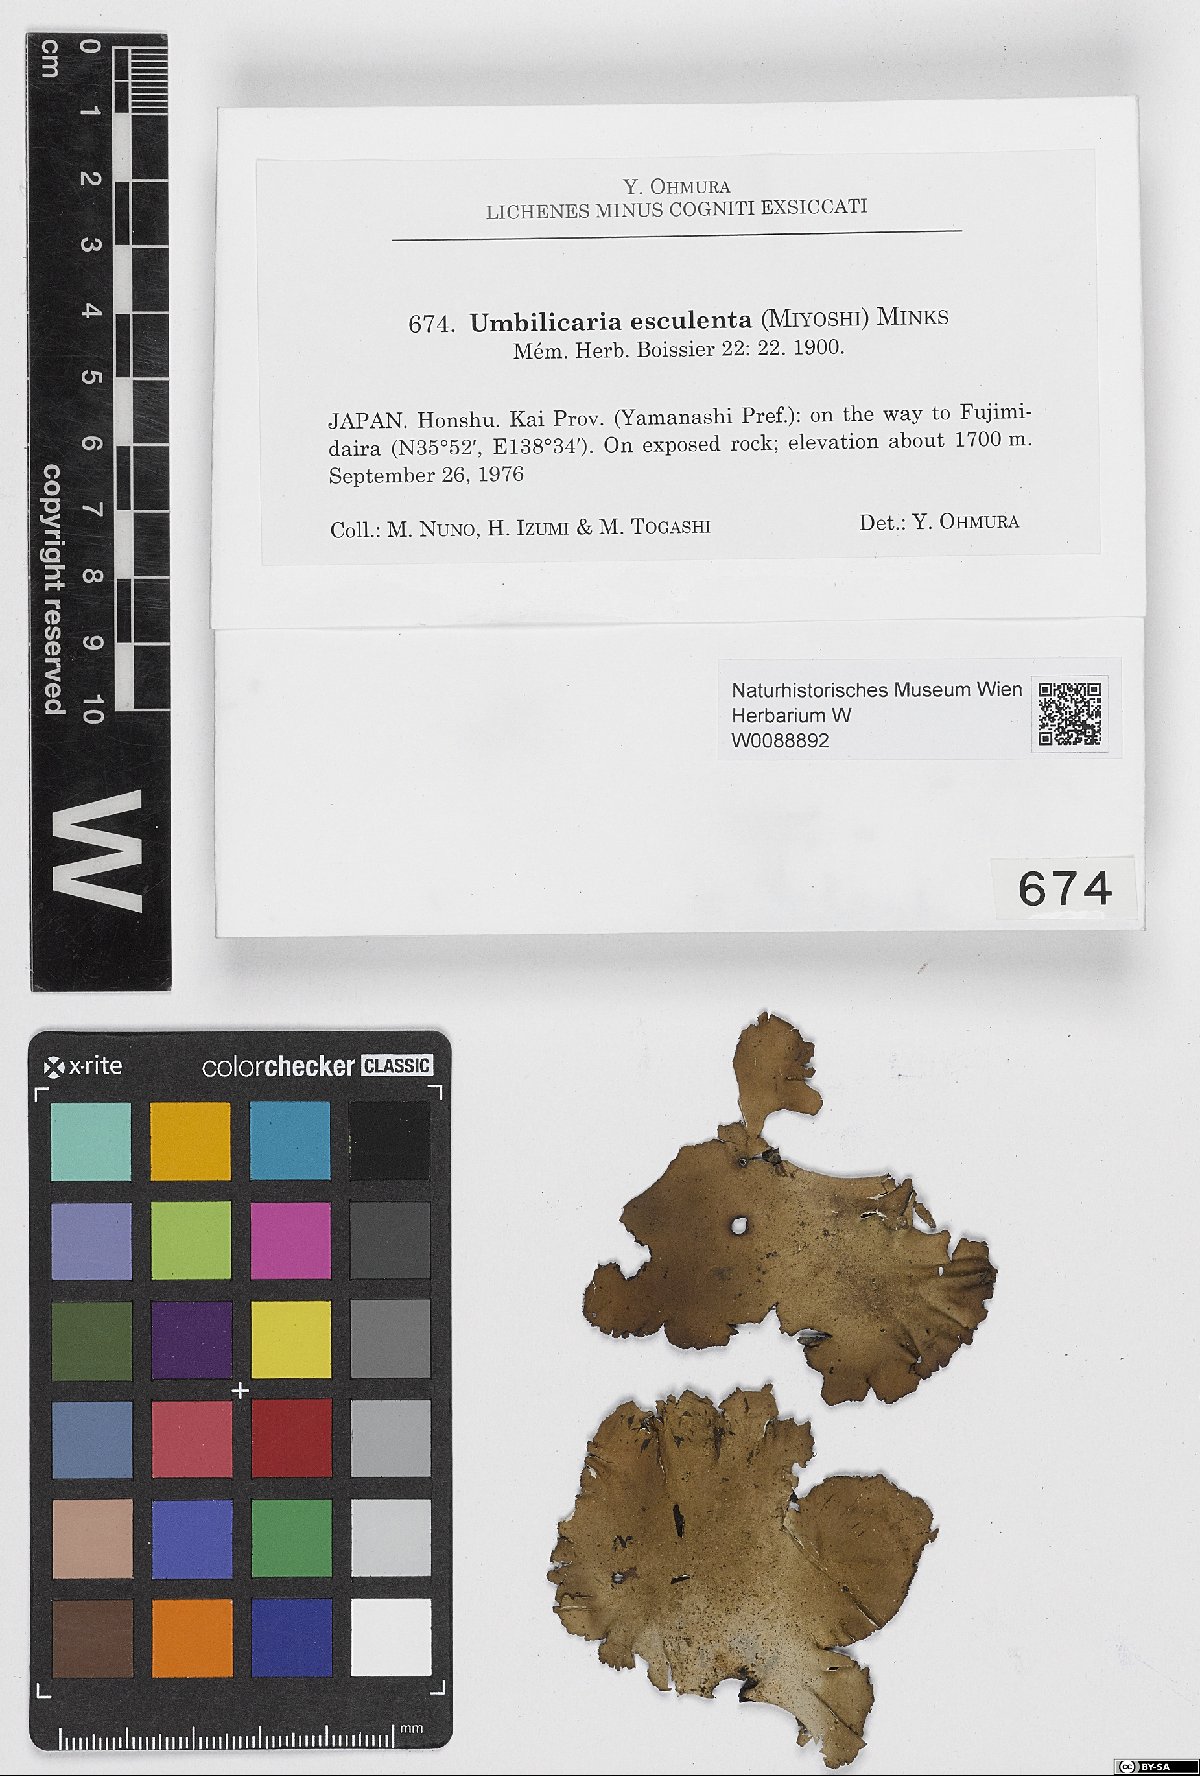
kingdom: Fungi
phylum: Ascomycota
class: Lecanoromycetes
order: Umbilicariales
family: Umbilicariaceae
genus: Umbilicaria
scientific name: Umbilicaria esculenta
